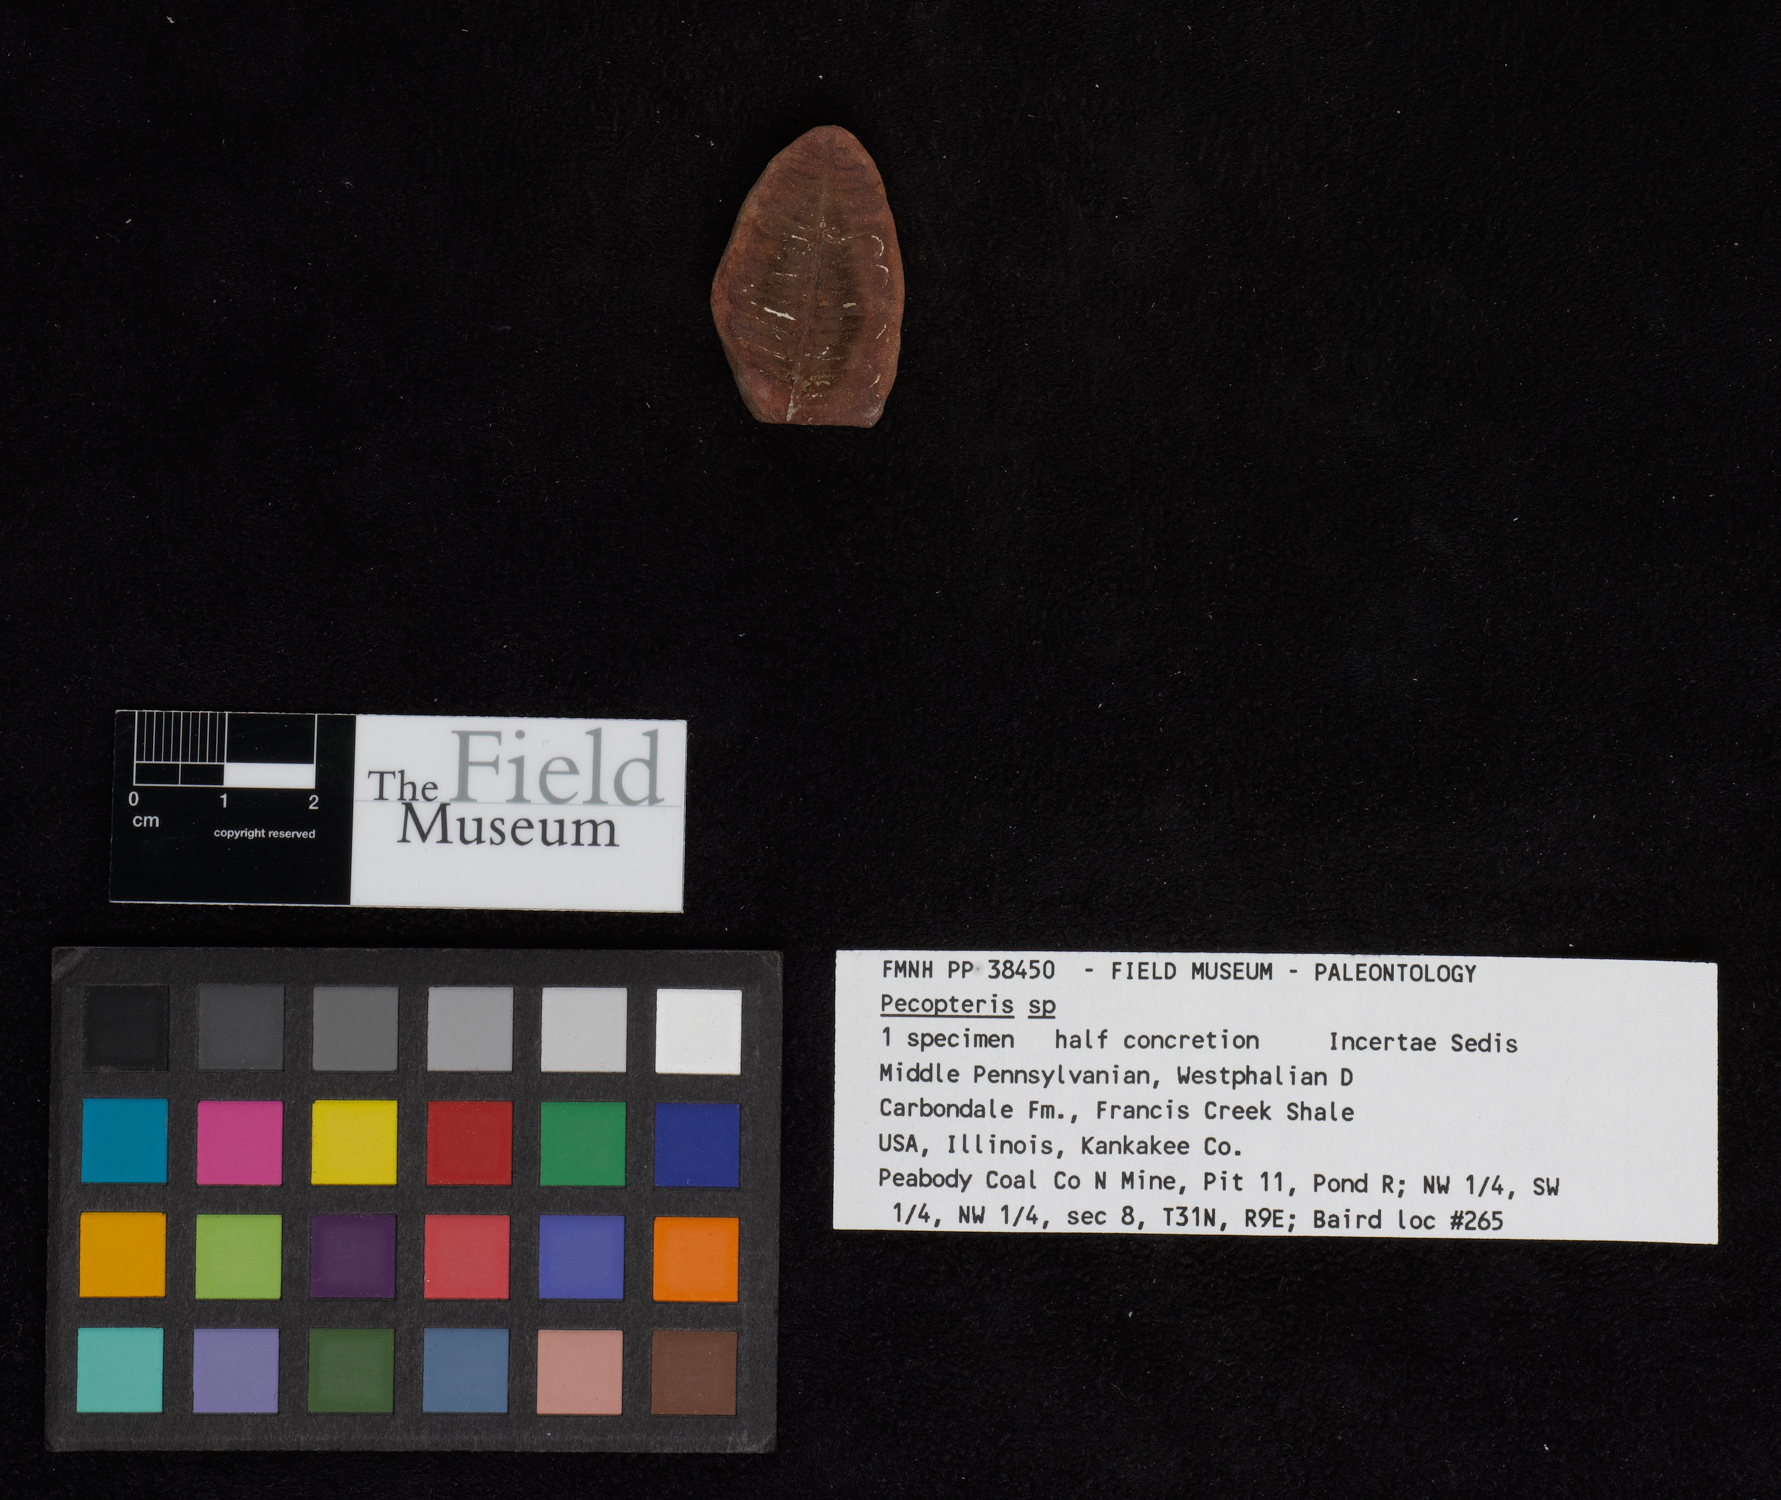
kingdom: Plantae
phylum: Tracheophyta
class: Polypodiopsida
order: Marattiales
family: Asterothecaceae
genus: Pecopteris
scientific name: Pecopteris
